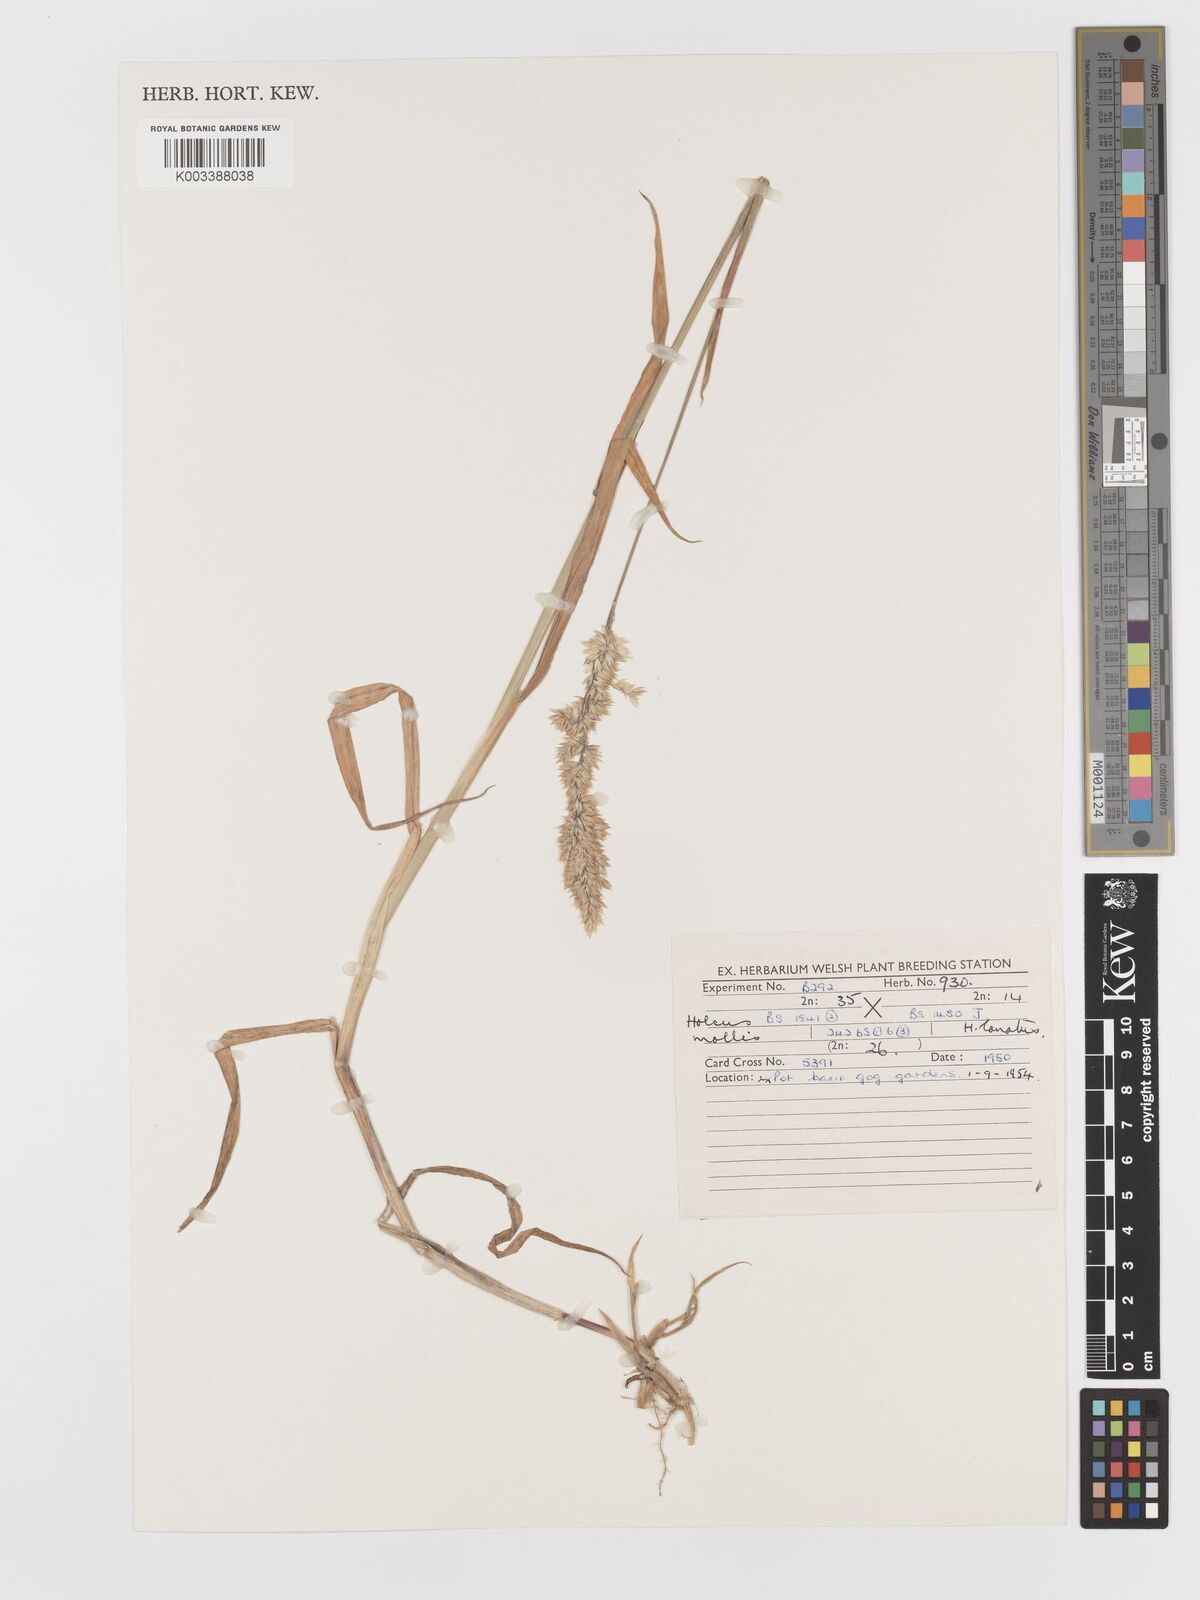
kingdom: Plantae
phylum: Tracheophyta
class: Liliopsida
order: Poales
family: Poaceae
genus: Holcus
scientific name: Holcus lanatus
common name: Yorkshire-fog
